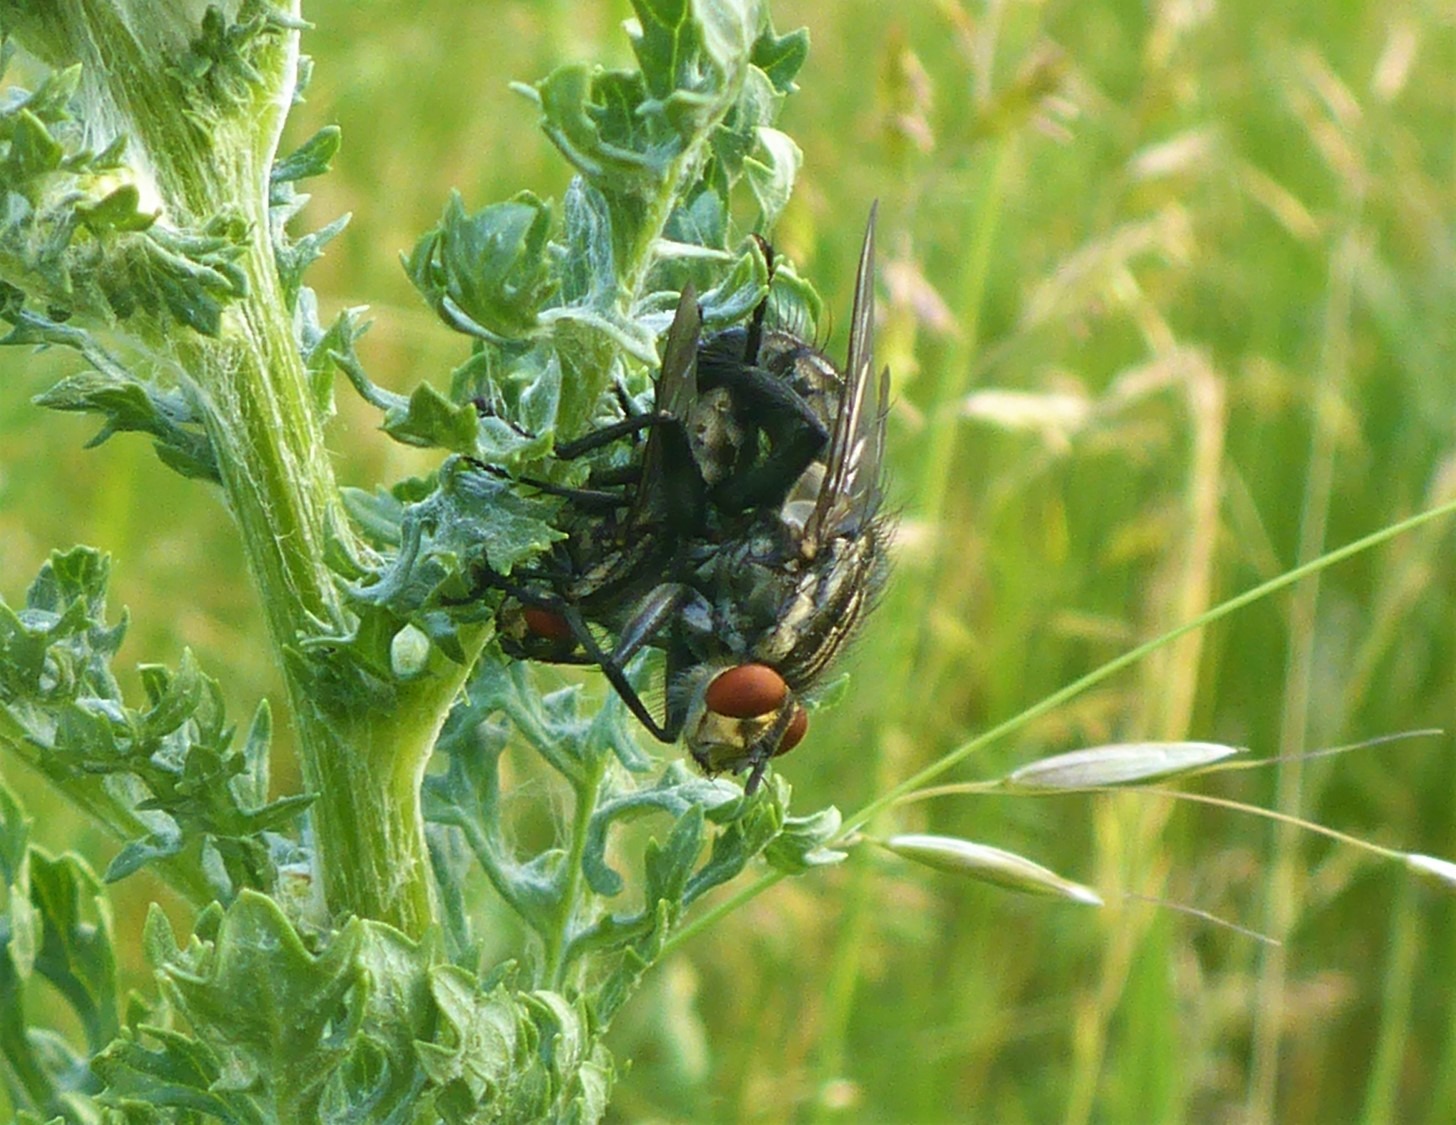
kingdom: Animalia
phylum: Arthropoda
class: Insecta
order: Diptera
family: Sarcophagidae
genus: Sarcophaga
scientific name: Sarcophaga
